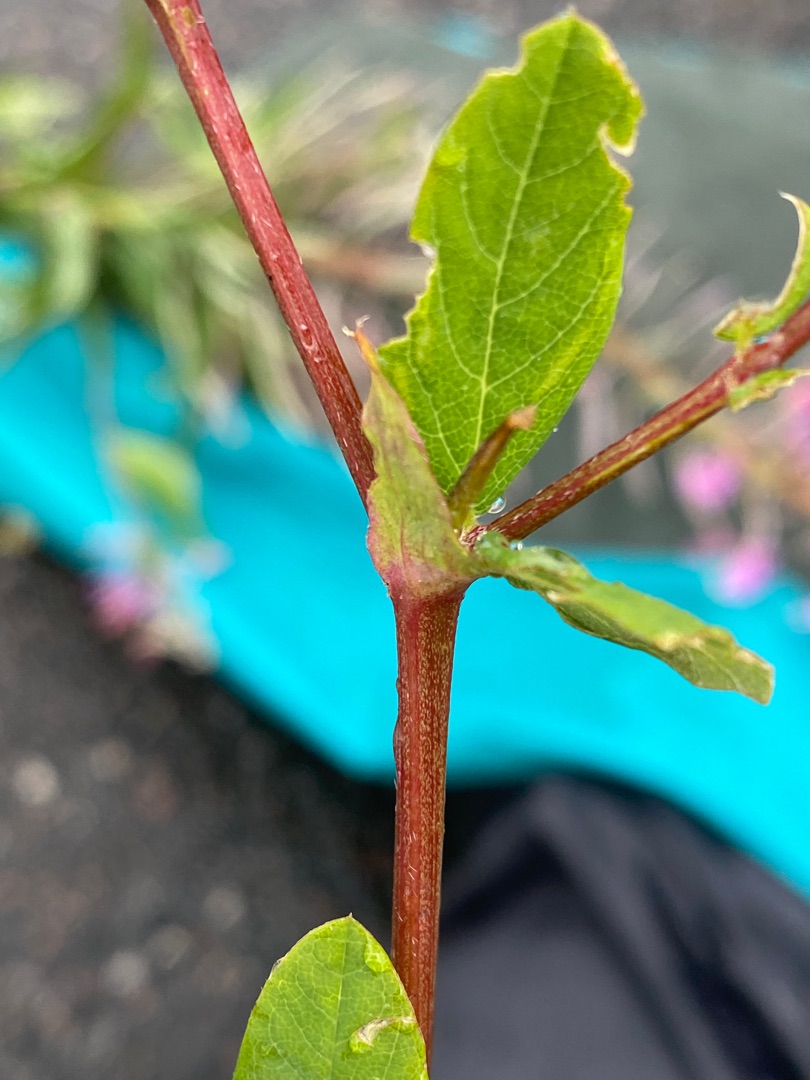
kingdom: Plantae
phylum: Tracheophyta
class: Magnoliopsida
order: Fabales
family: Fabaceae
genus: Astragalus
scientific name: Astragalus glycyphyllos
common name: Sød astragel
